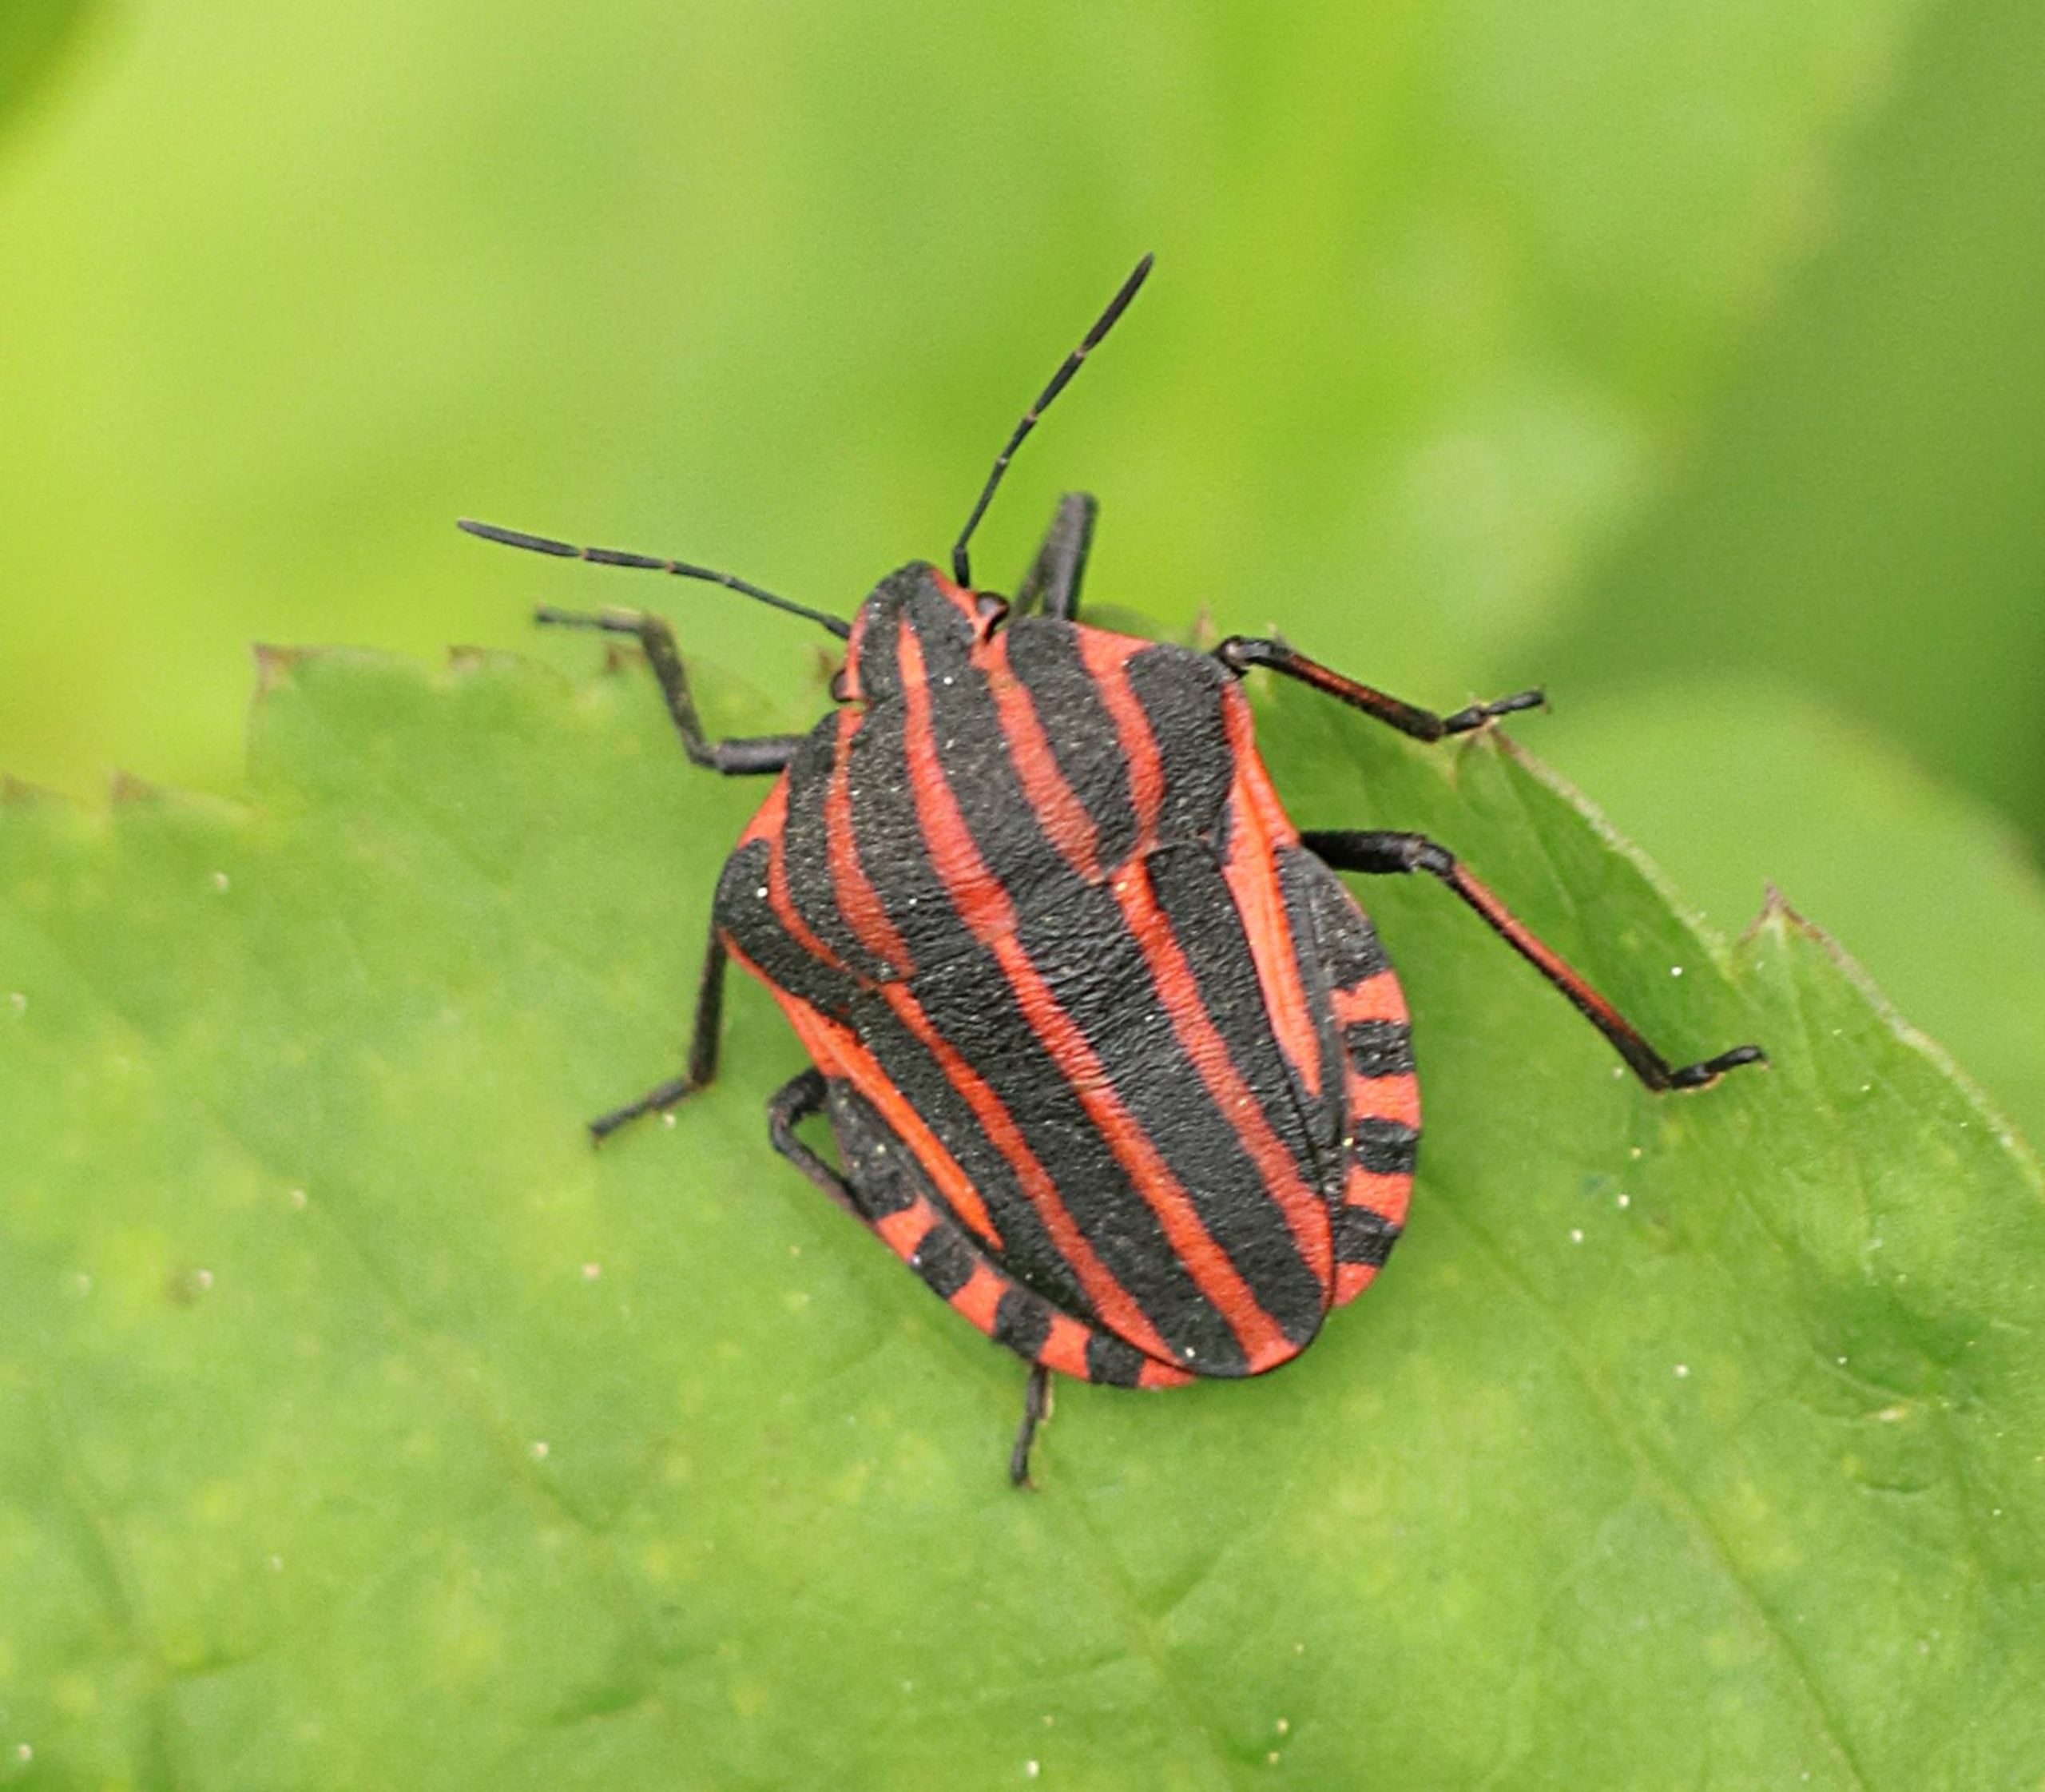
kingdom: Animalia
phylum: Arthropoda
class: Insecta
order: Hemiptera
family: Pentatomidae
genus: Graphosoma
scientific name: Graphosoma italicum
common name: Stribetæge
